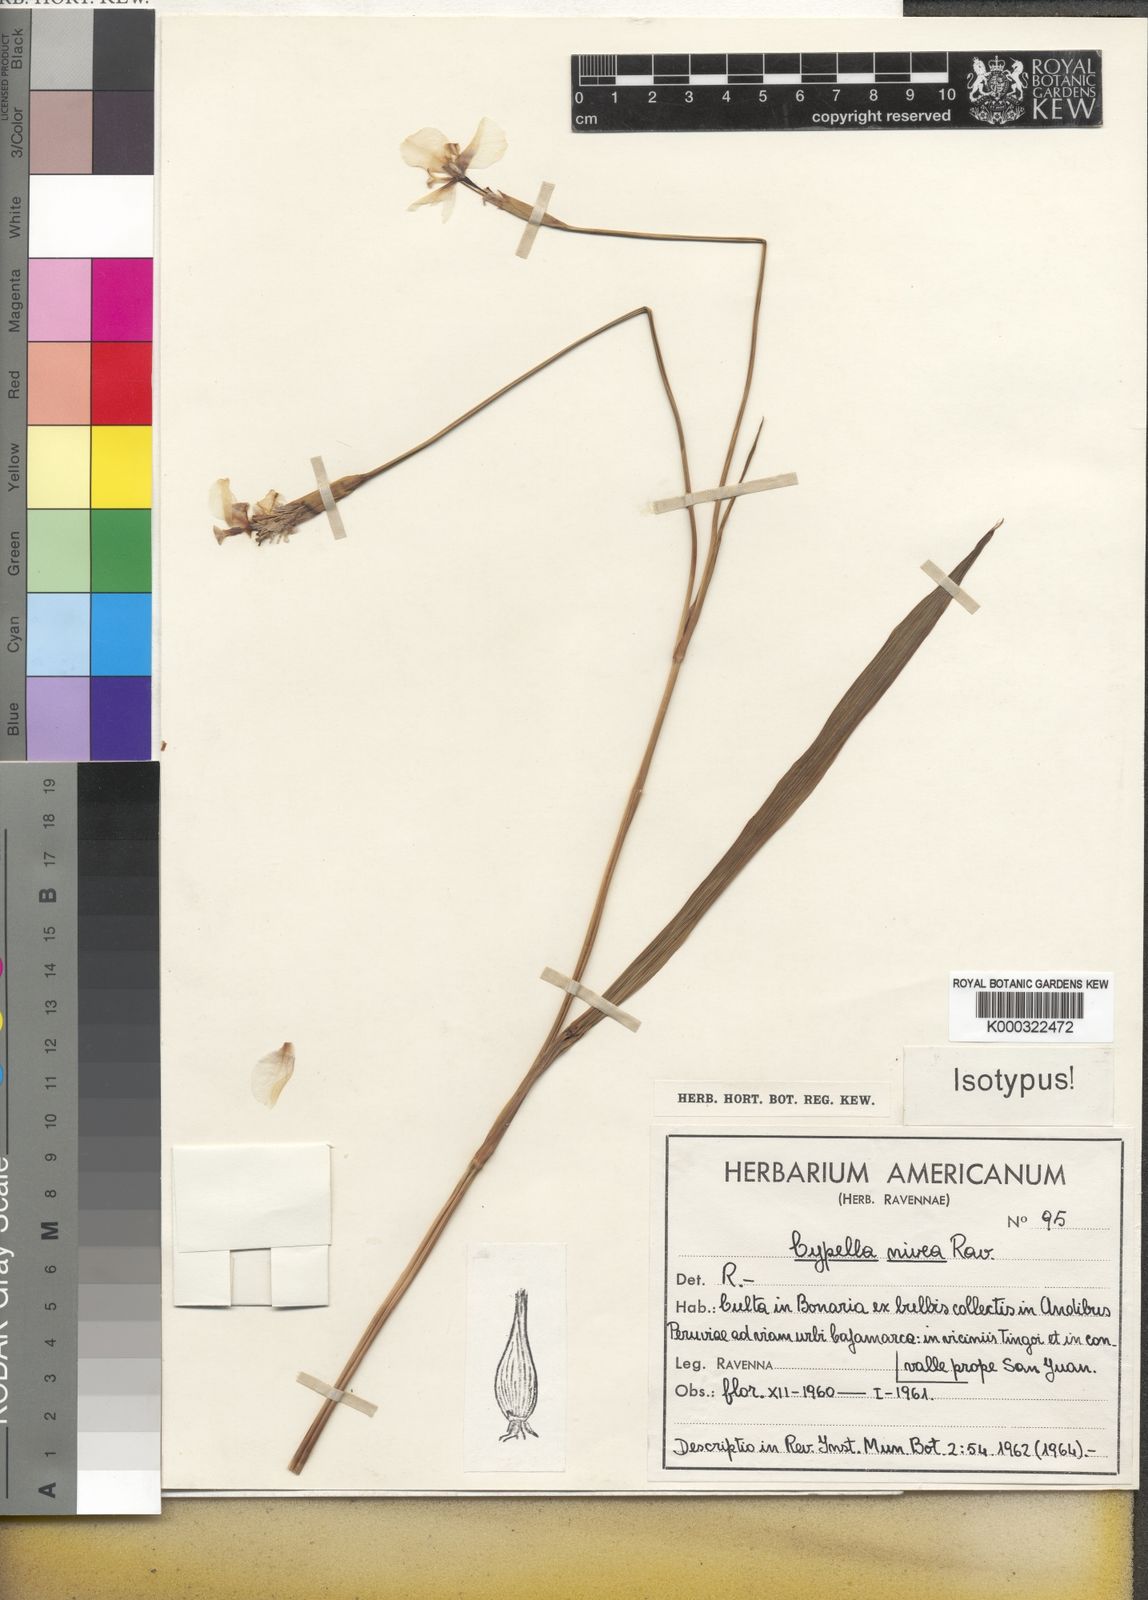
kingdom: Plantae
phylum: Tracheophyta
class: Liliopsida
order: Asparagales
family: Iridaceae
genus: Hesperoxiphion
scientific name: Hesperoxiphion niveum
